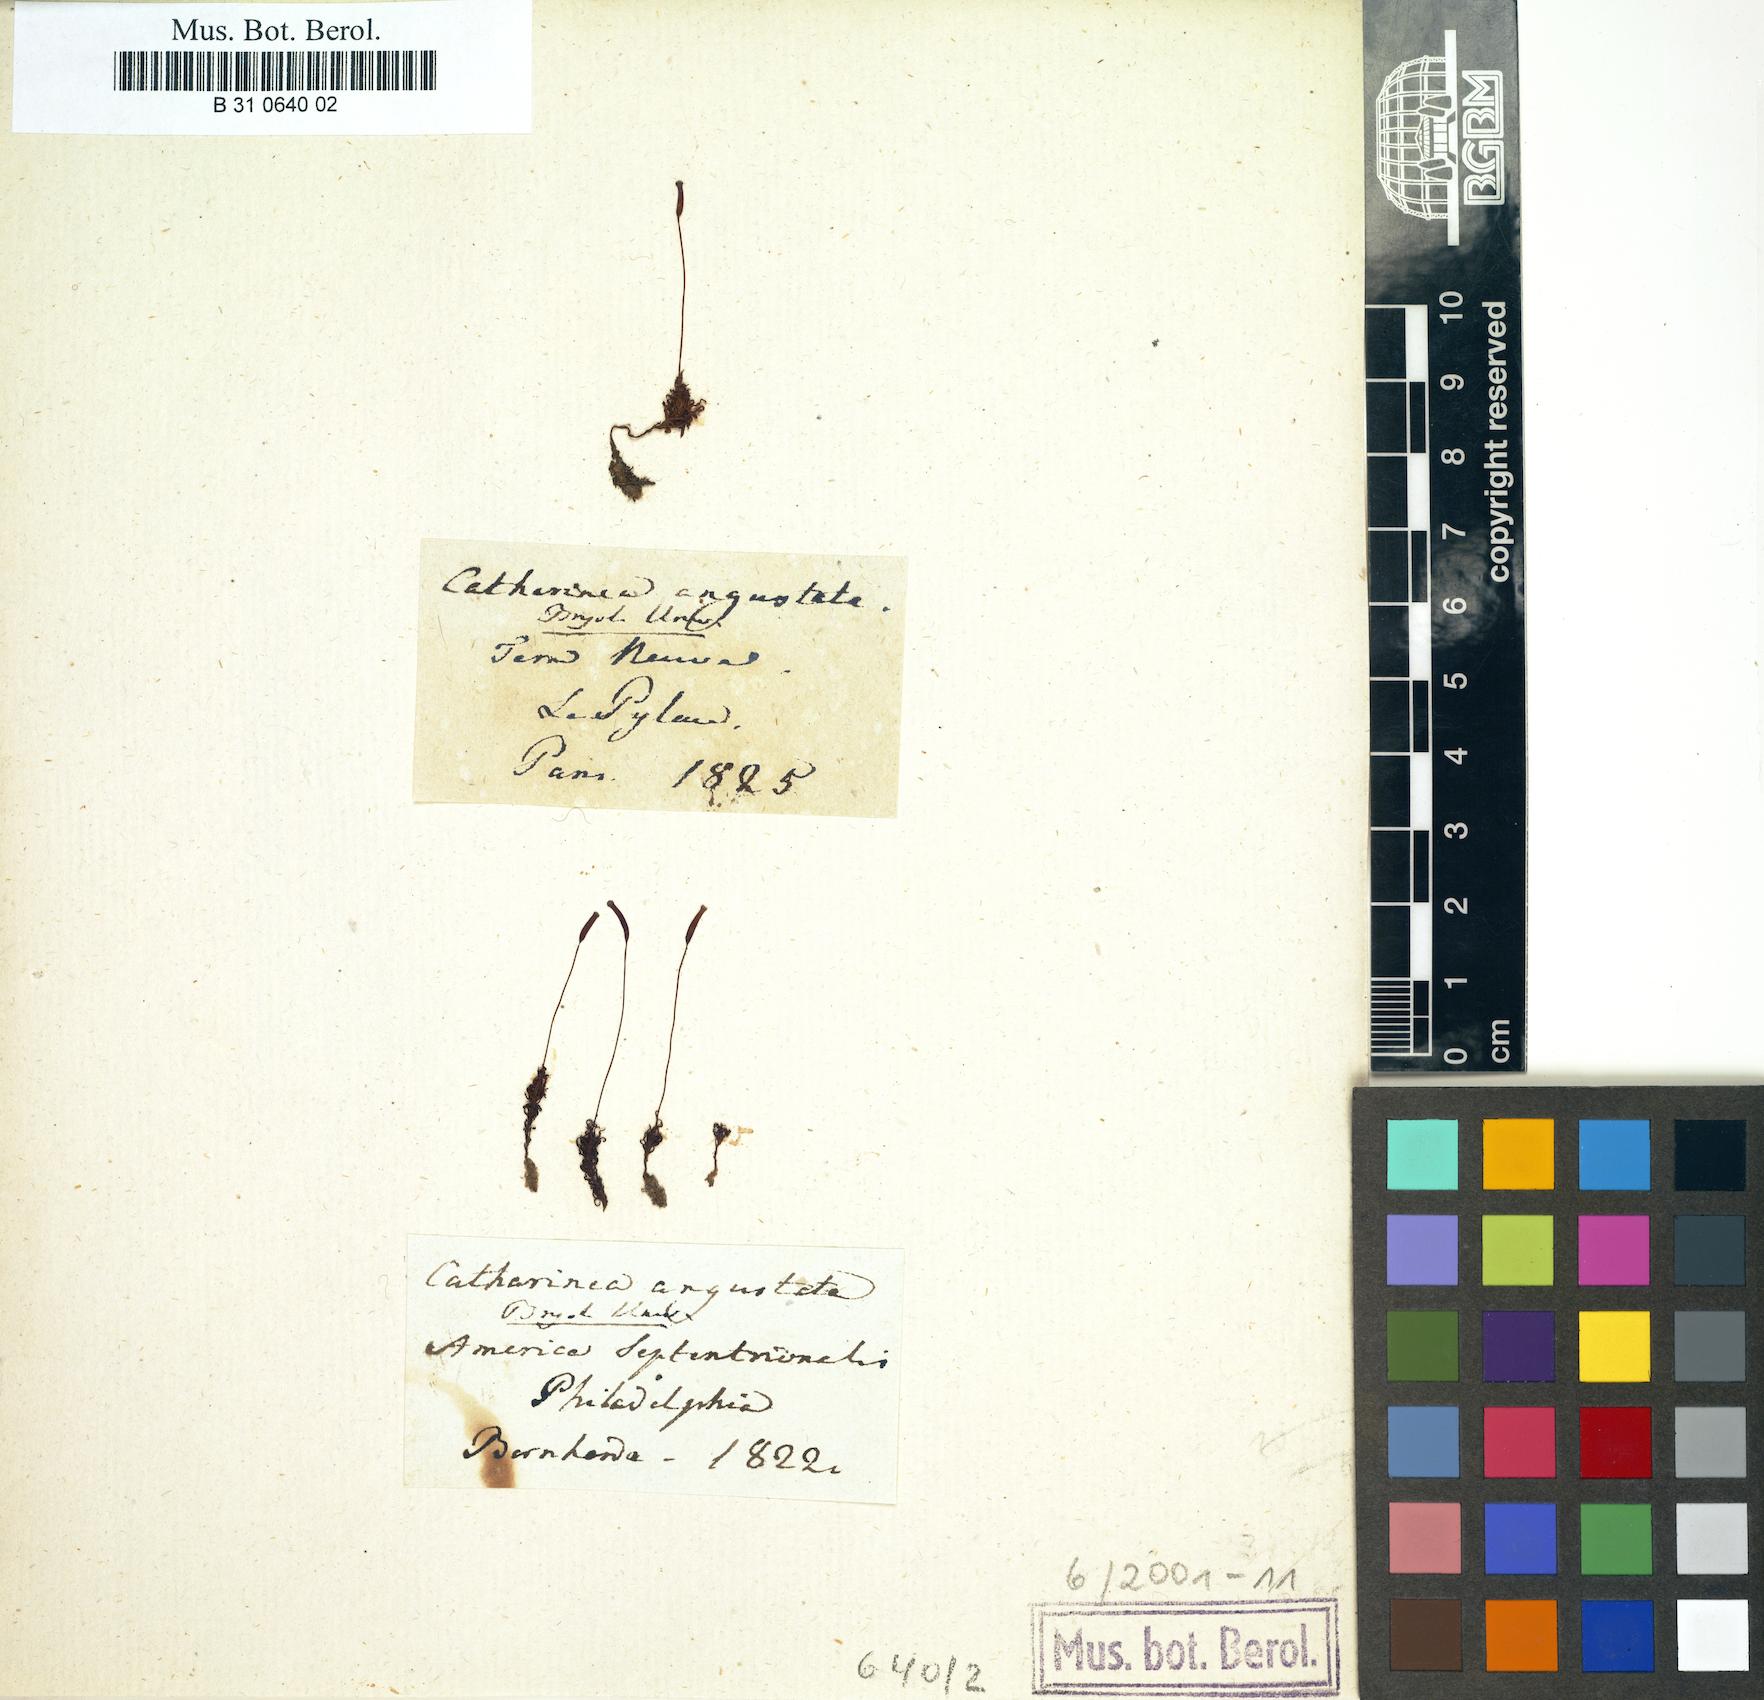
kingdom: Plantae
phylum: Bryophyta
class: Polytrichopsida
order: Polytrichales
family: Polytrichaceae
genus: Atrichum
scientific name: Atrichum angustatum
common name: Lesser smoothcap
